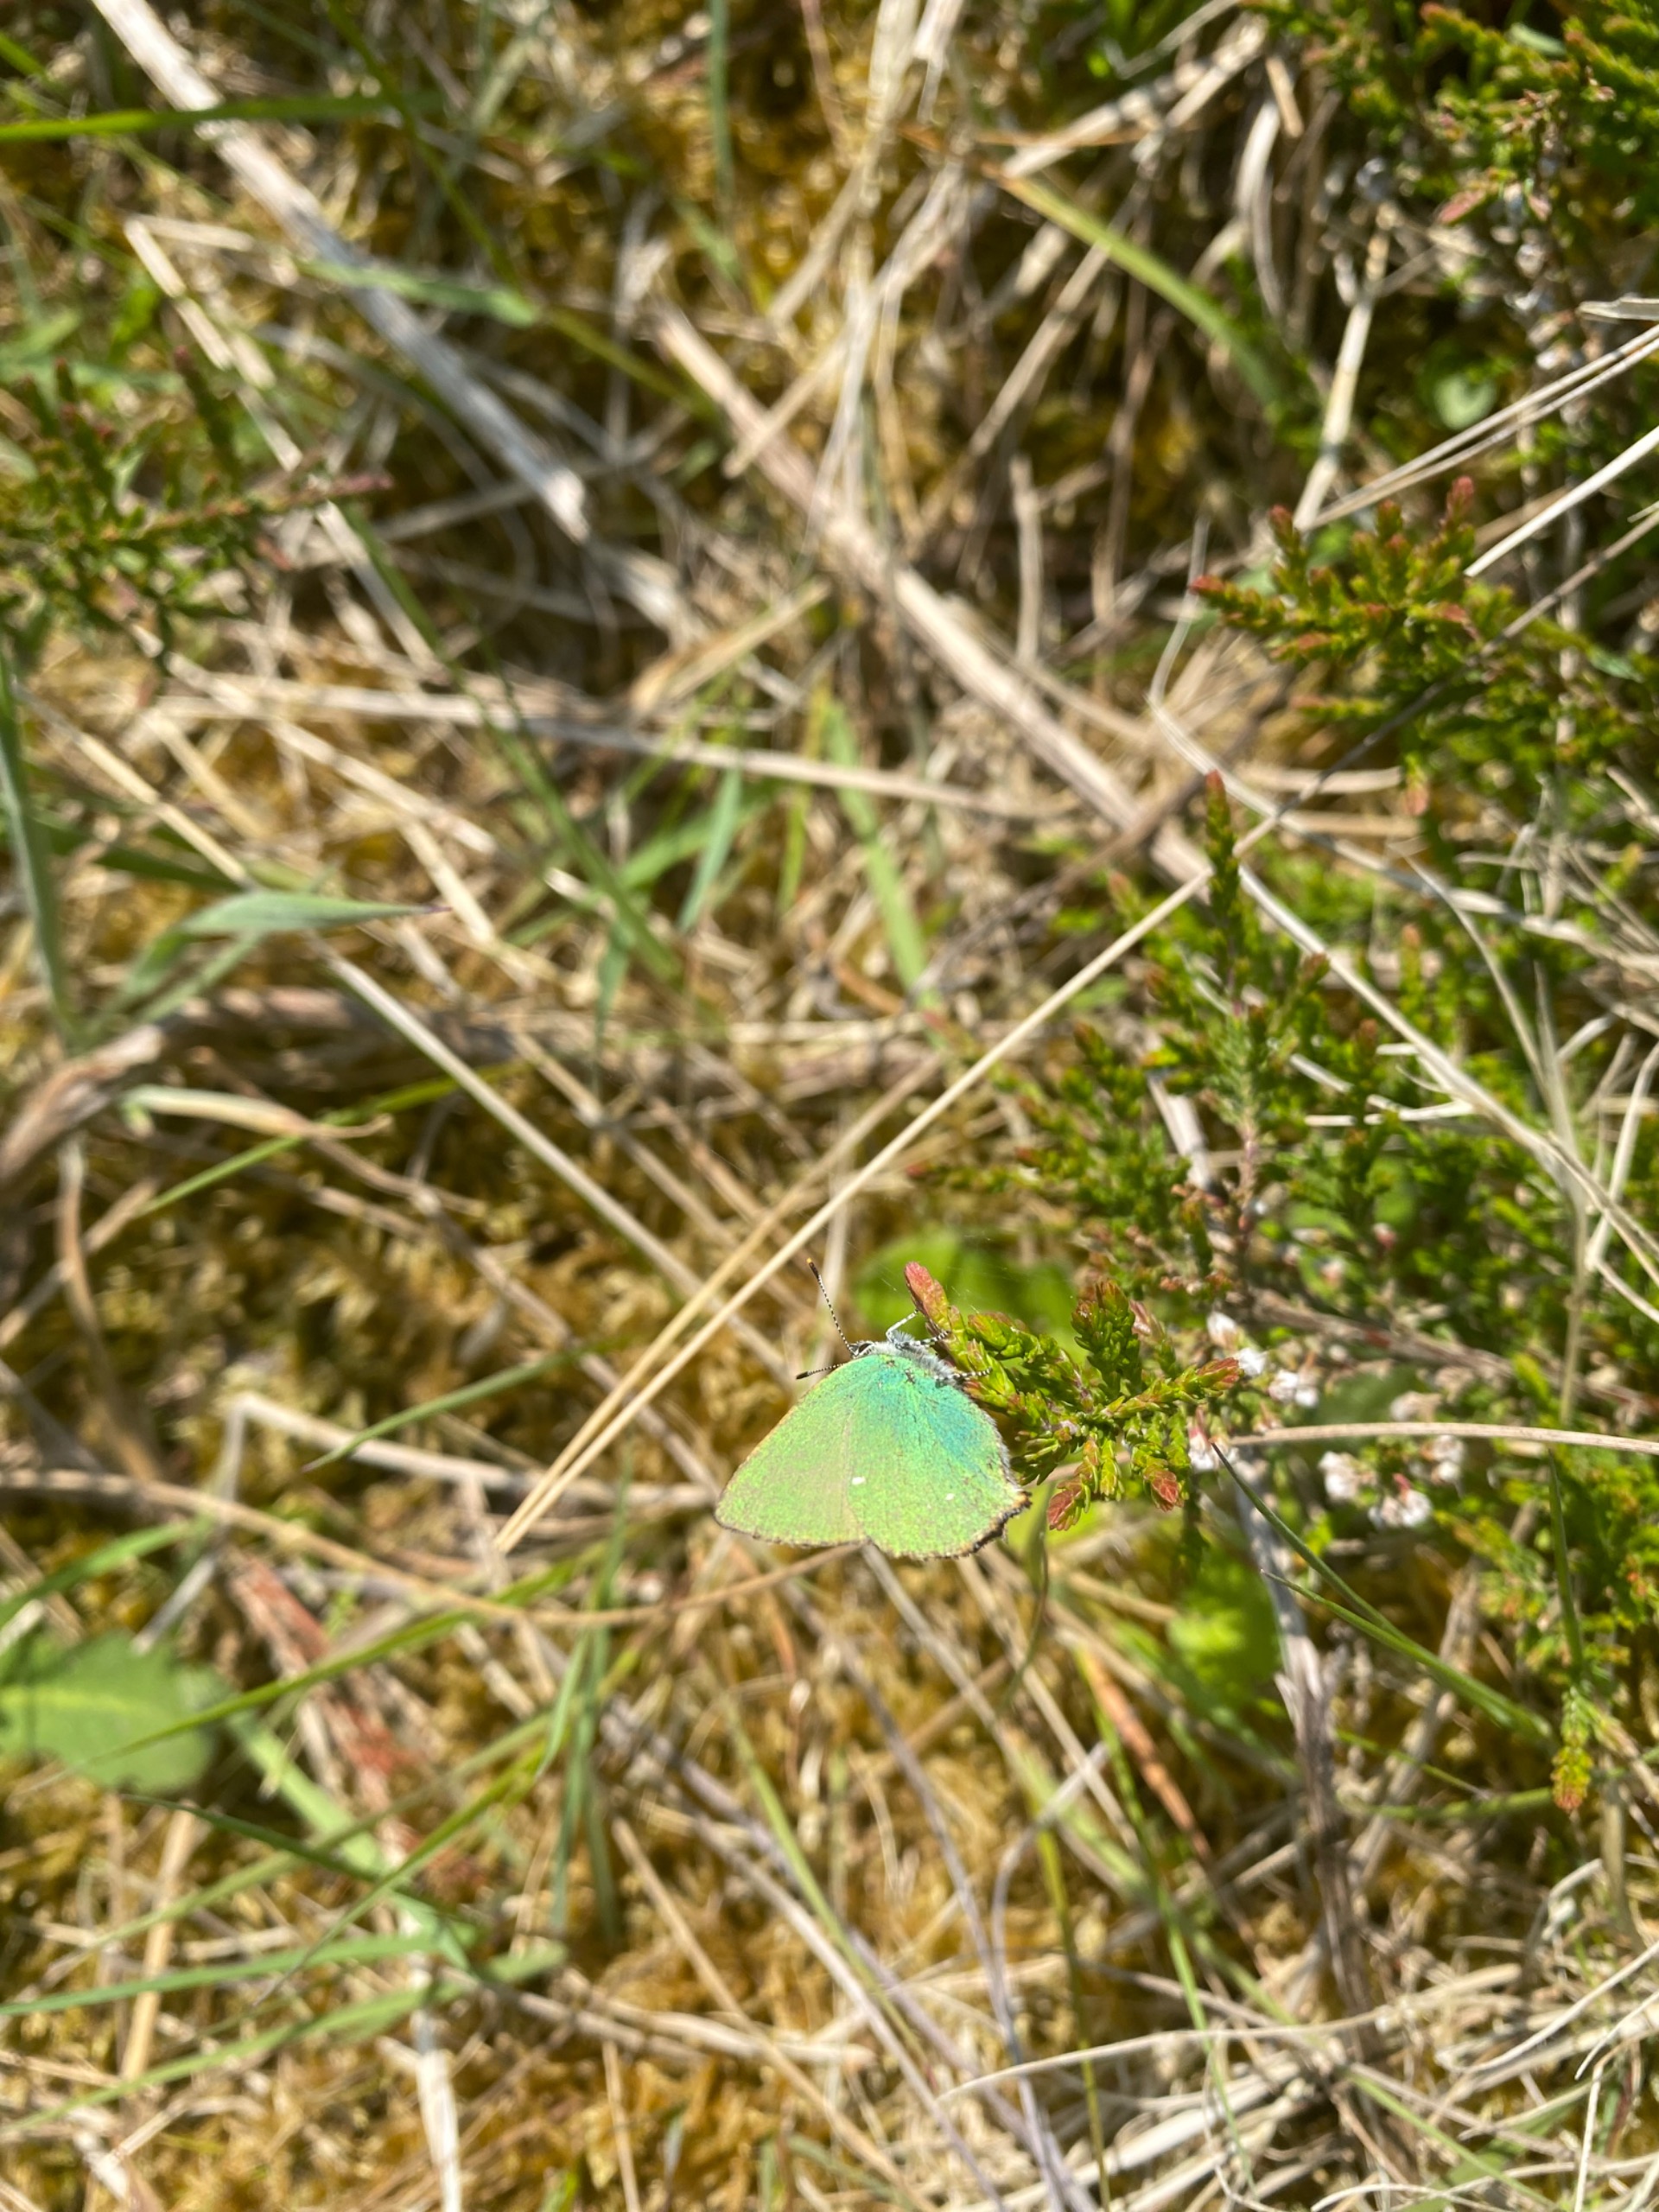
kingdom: Animalia
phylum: Arthropoda
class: Insecta
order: Lepidoptera
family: Lycaenidae
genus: Callophrys
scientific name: Callophrys rubi
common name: Grøn busksommerfugl
